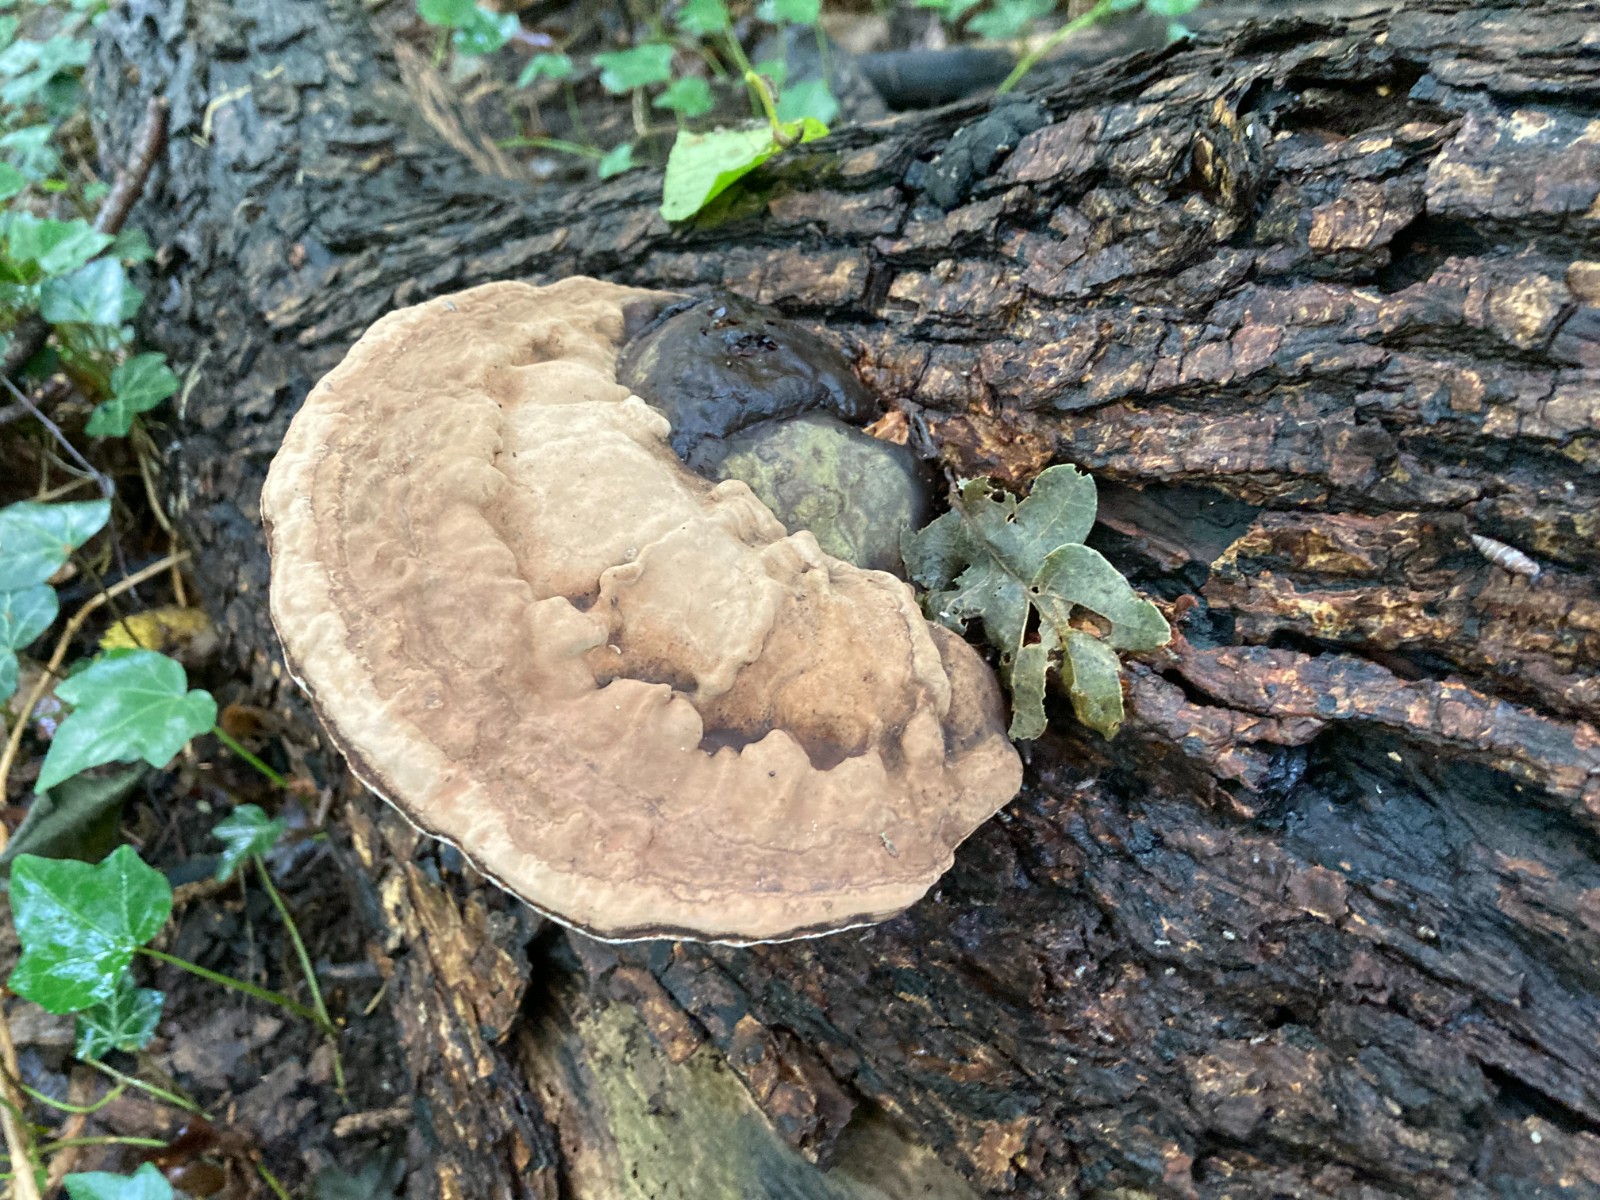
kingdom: Fungi
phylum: Basidiomycota
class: Agaricomycetes
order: Polyporales
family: Polyporaceae
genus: Ganoderma
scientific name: Ganoderma applanatum
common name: flad lakporesvamp
